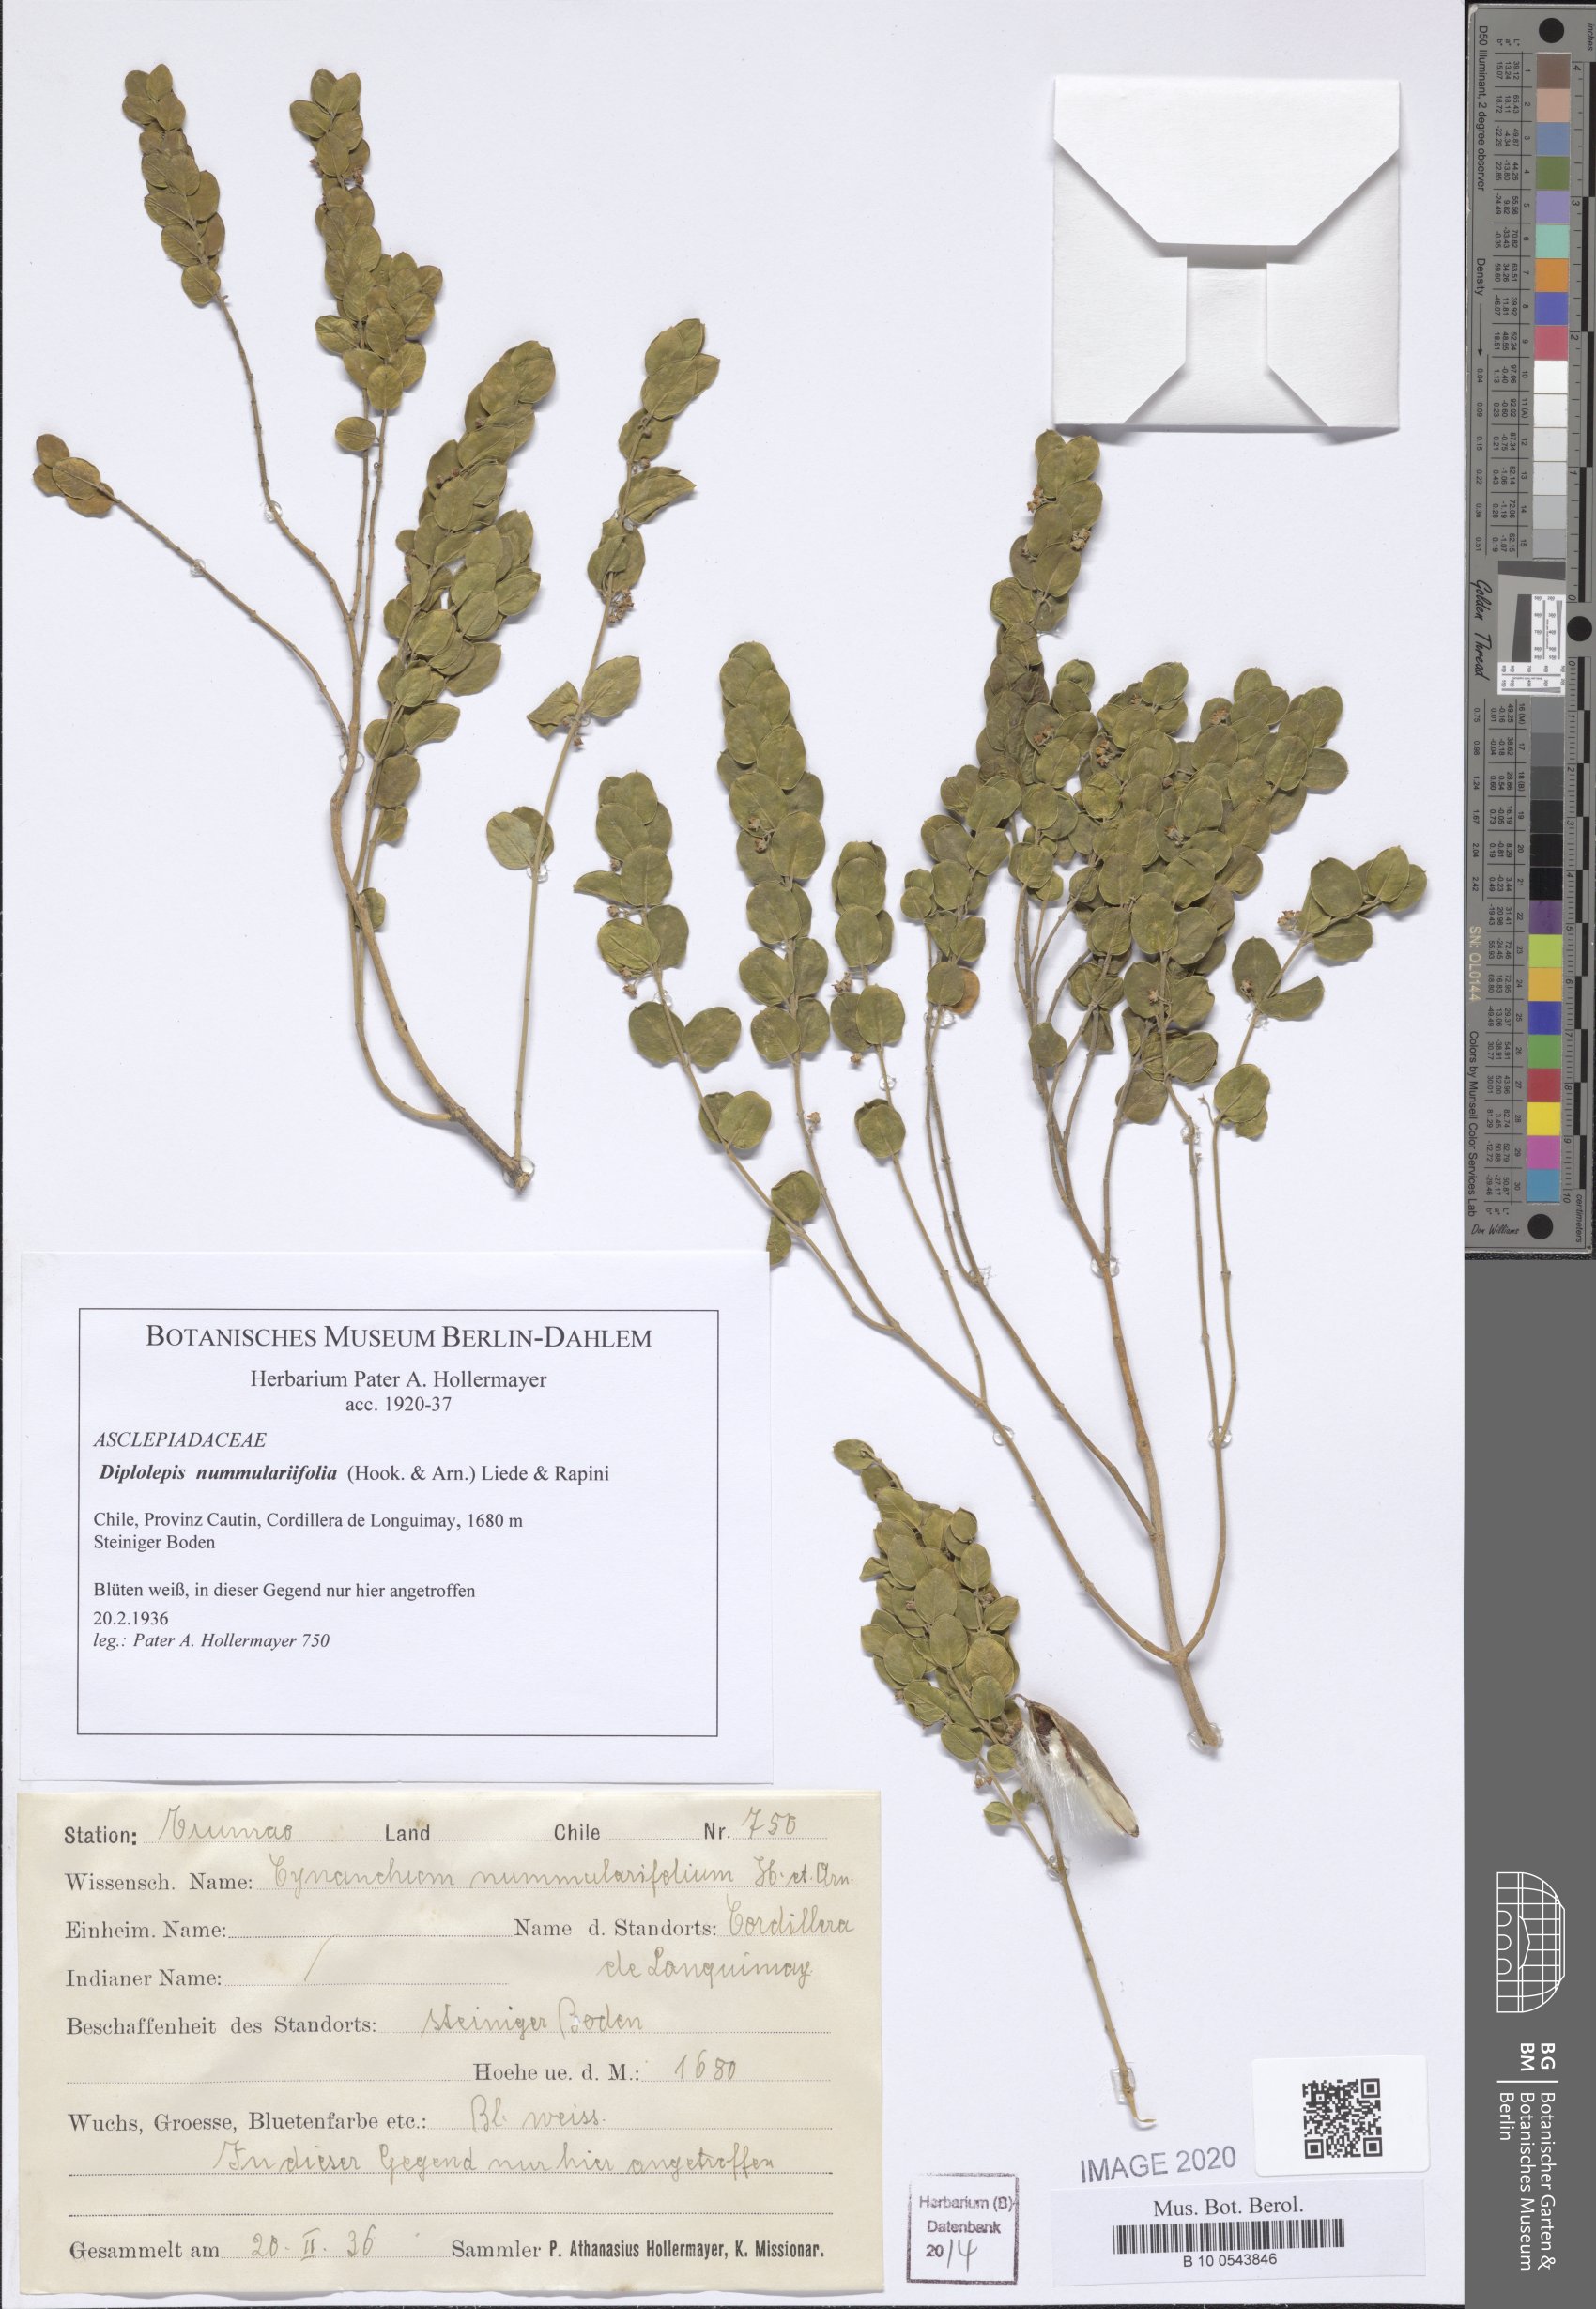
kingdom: Plantae
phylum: Tracheophyta
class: Magnoliopsida
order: Gentianales
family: Apocynaceae
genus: Diplolepis
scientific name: Diplolepis nummulariifolia
